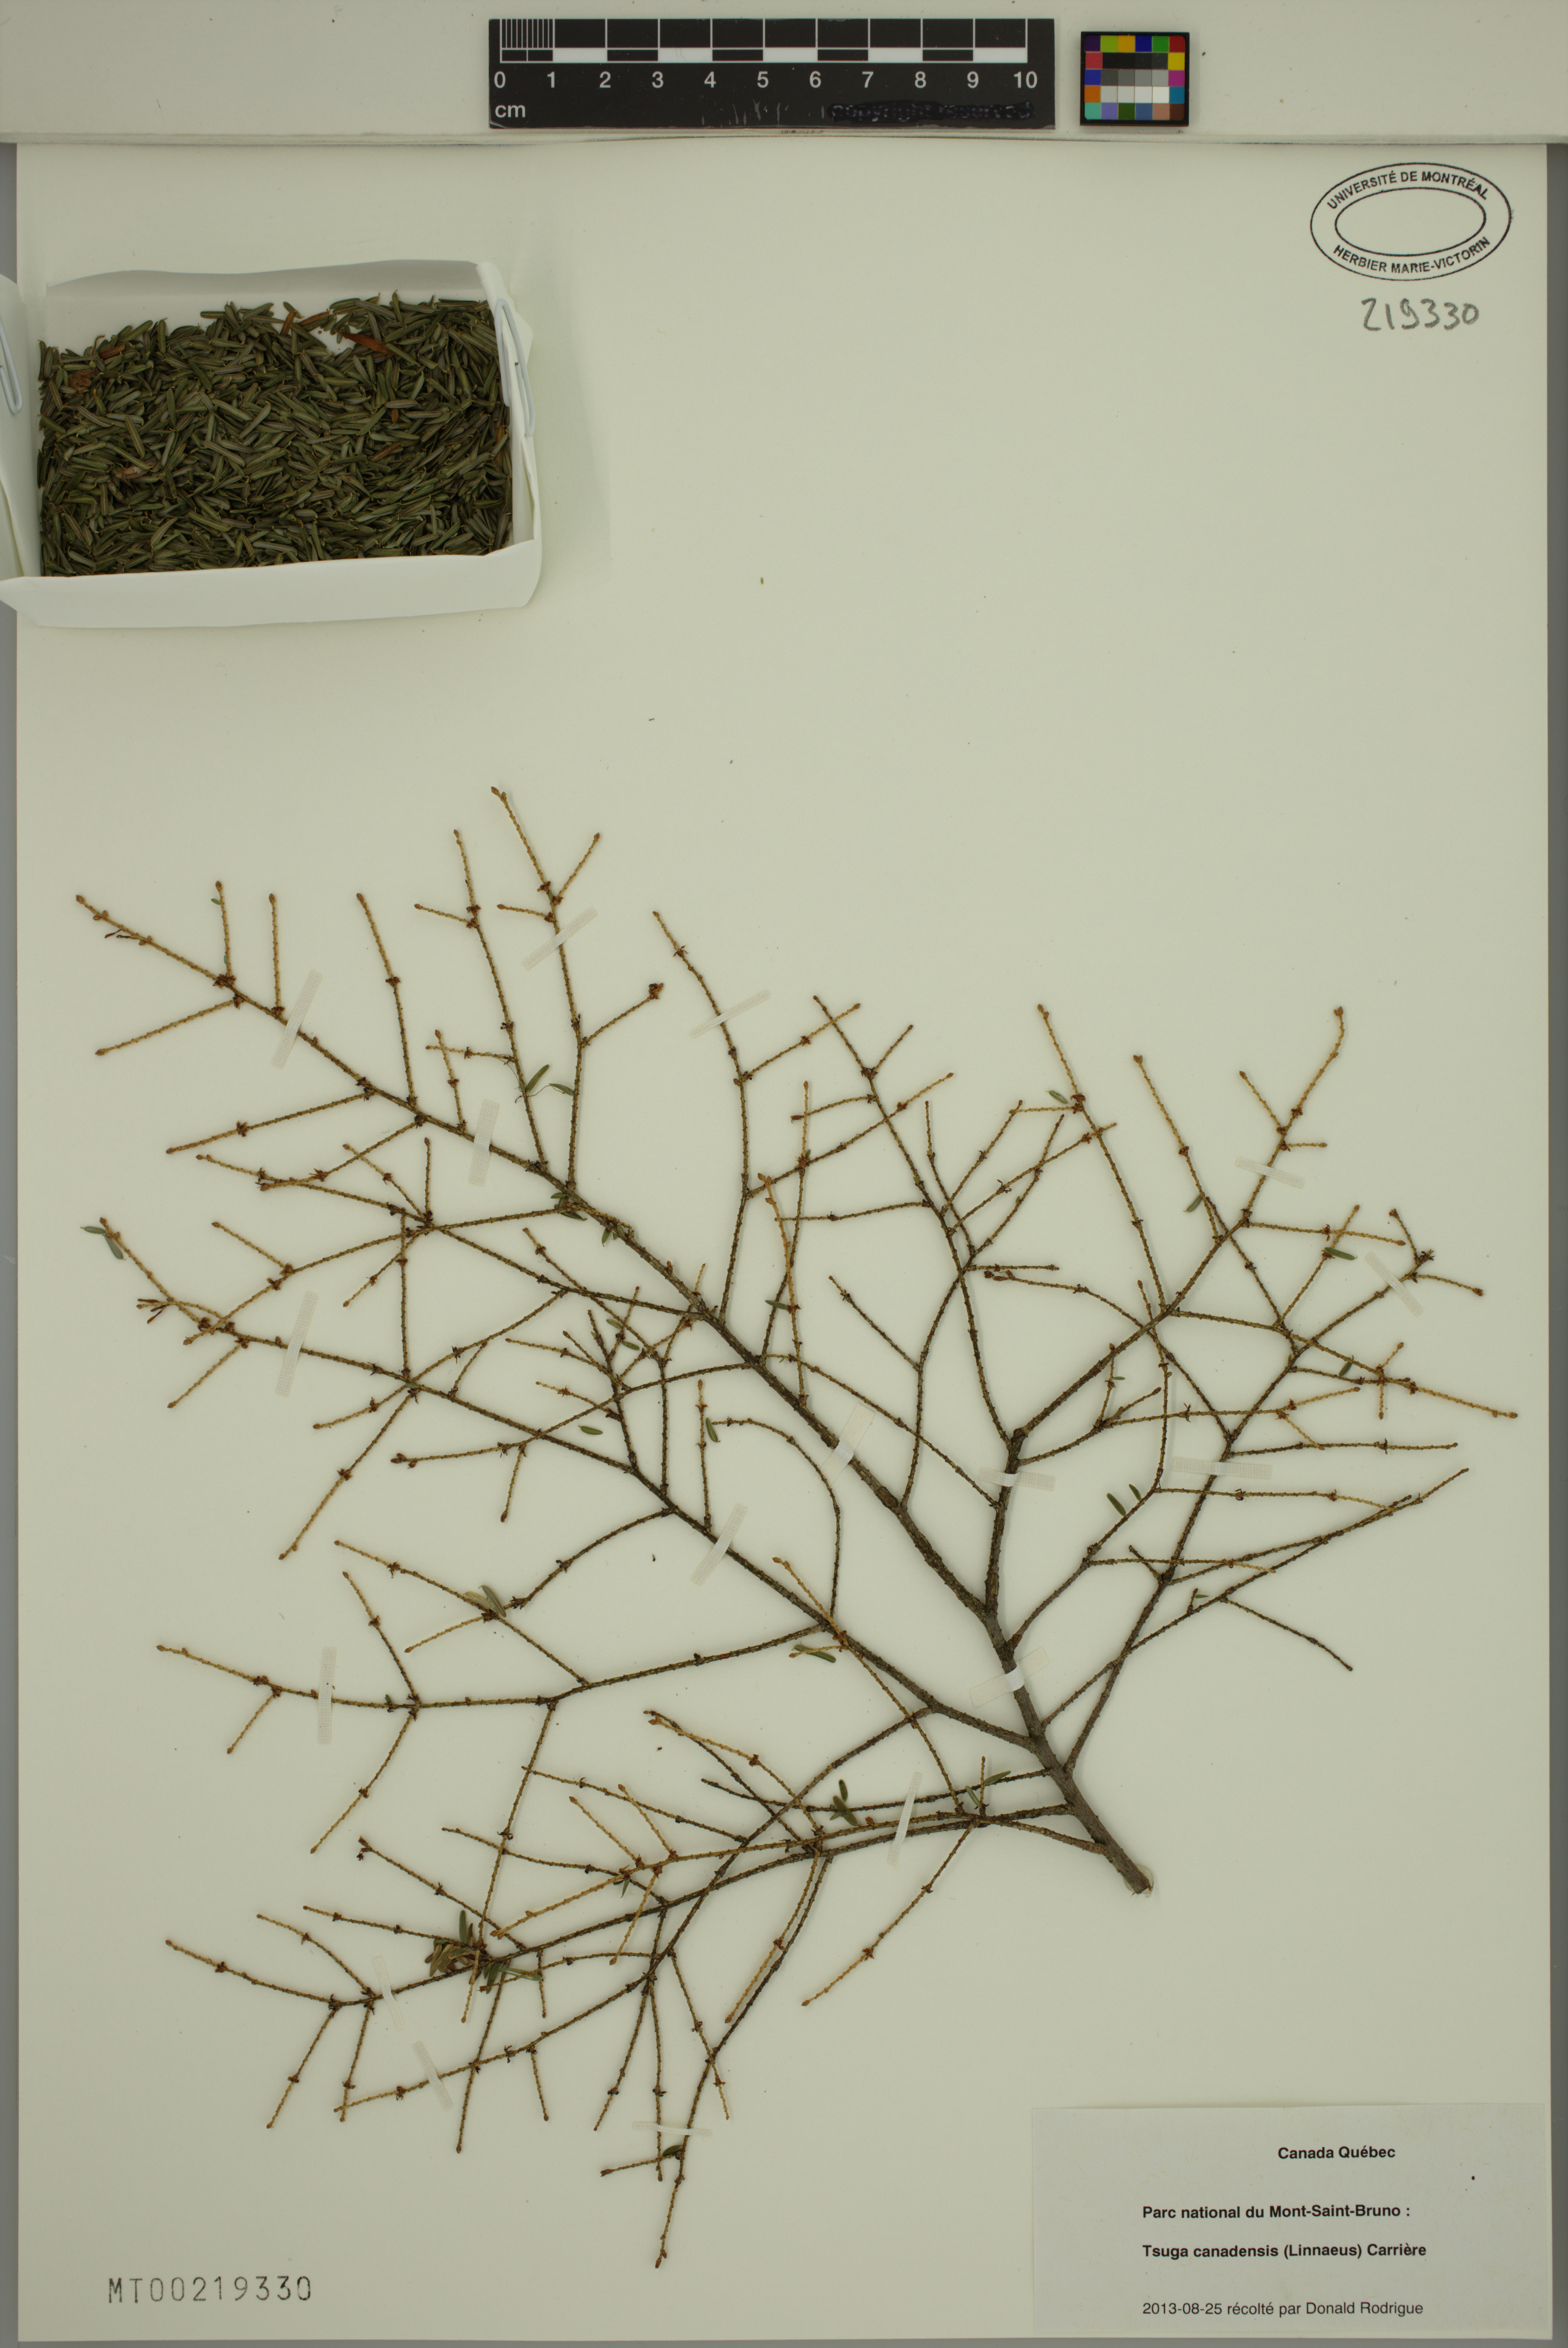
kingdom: Plantae
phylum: Tracheophyta
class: Pinopsida
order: Pinales
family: Pinaceae
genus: Tsuga
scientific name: Tsuga canadensis
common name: Eastern hemlock
